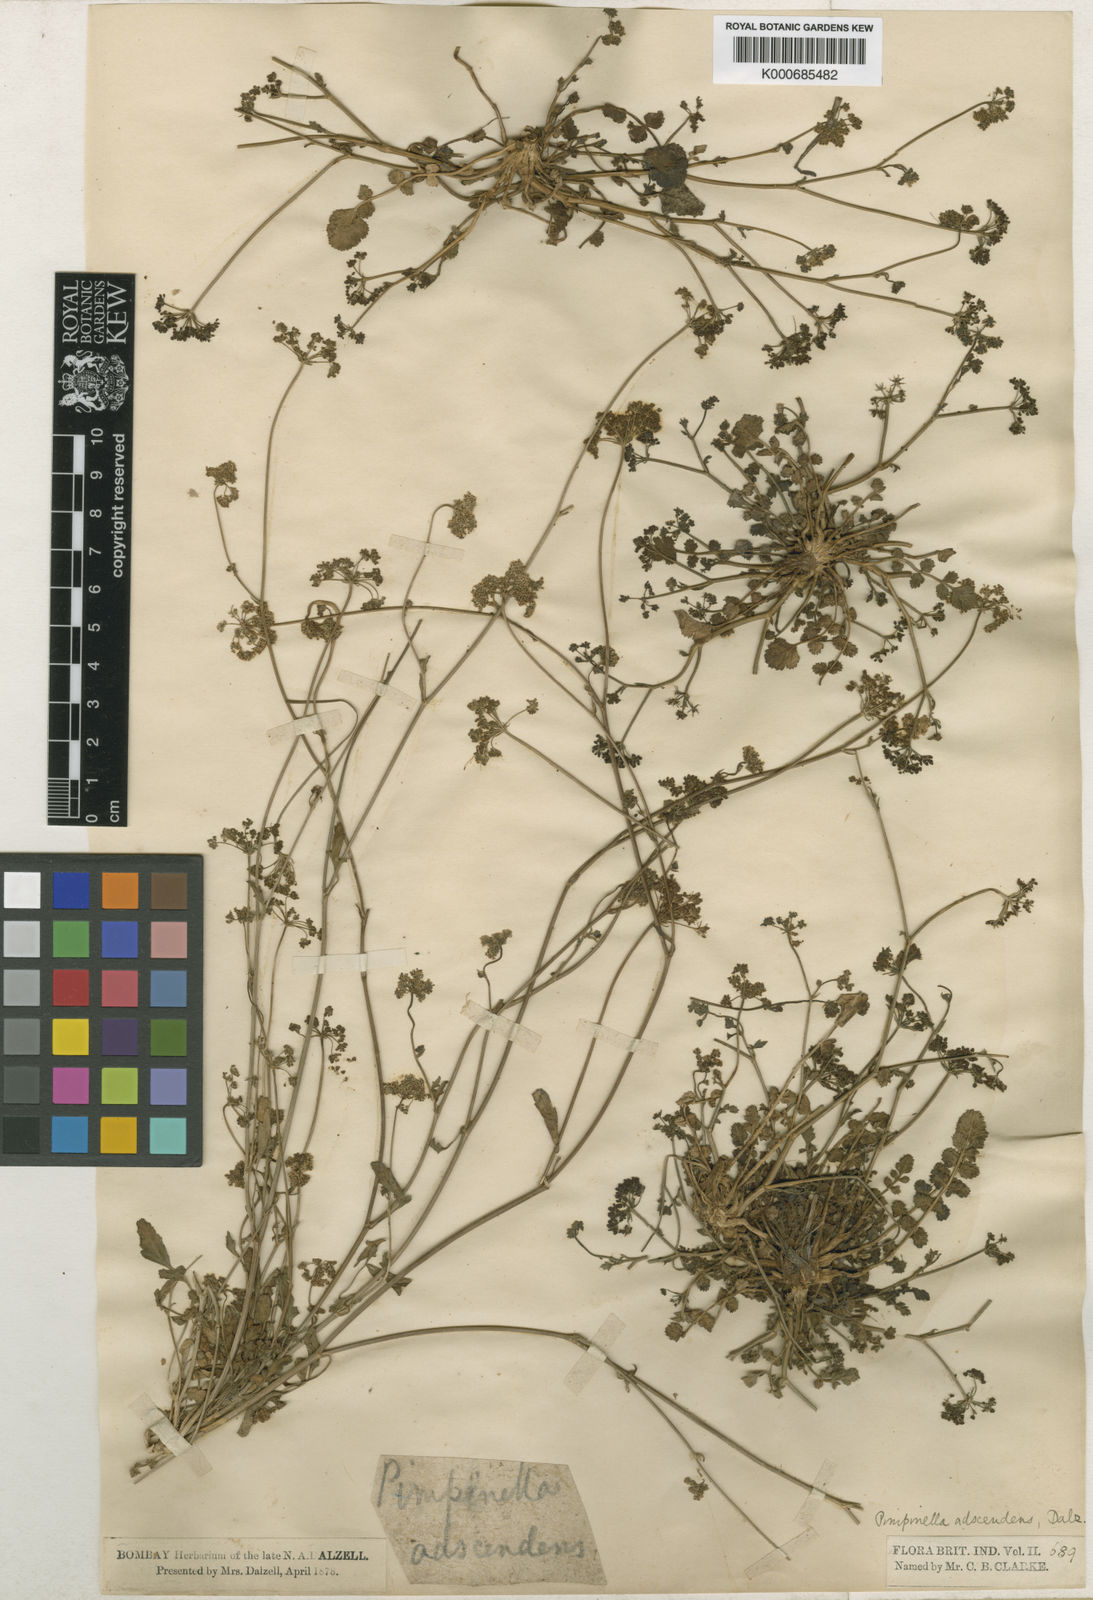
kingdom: Plantae
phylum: Tracheophyta
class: Magnoliopsida
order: Apiales
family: Apiaceae
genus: Pimpinella
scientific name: Pimpinella adscendens
